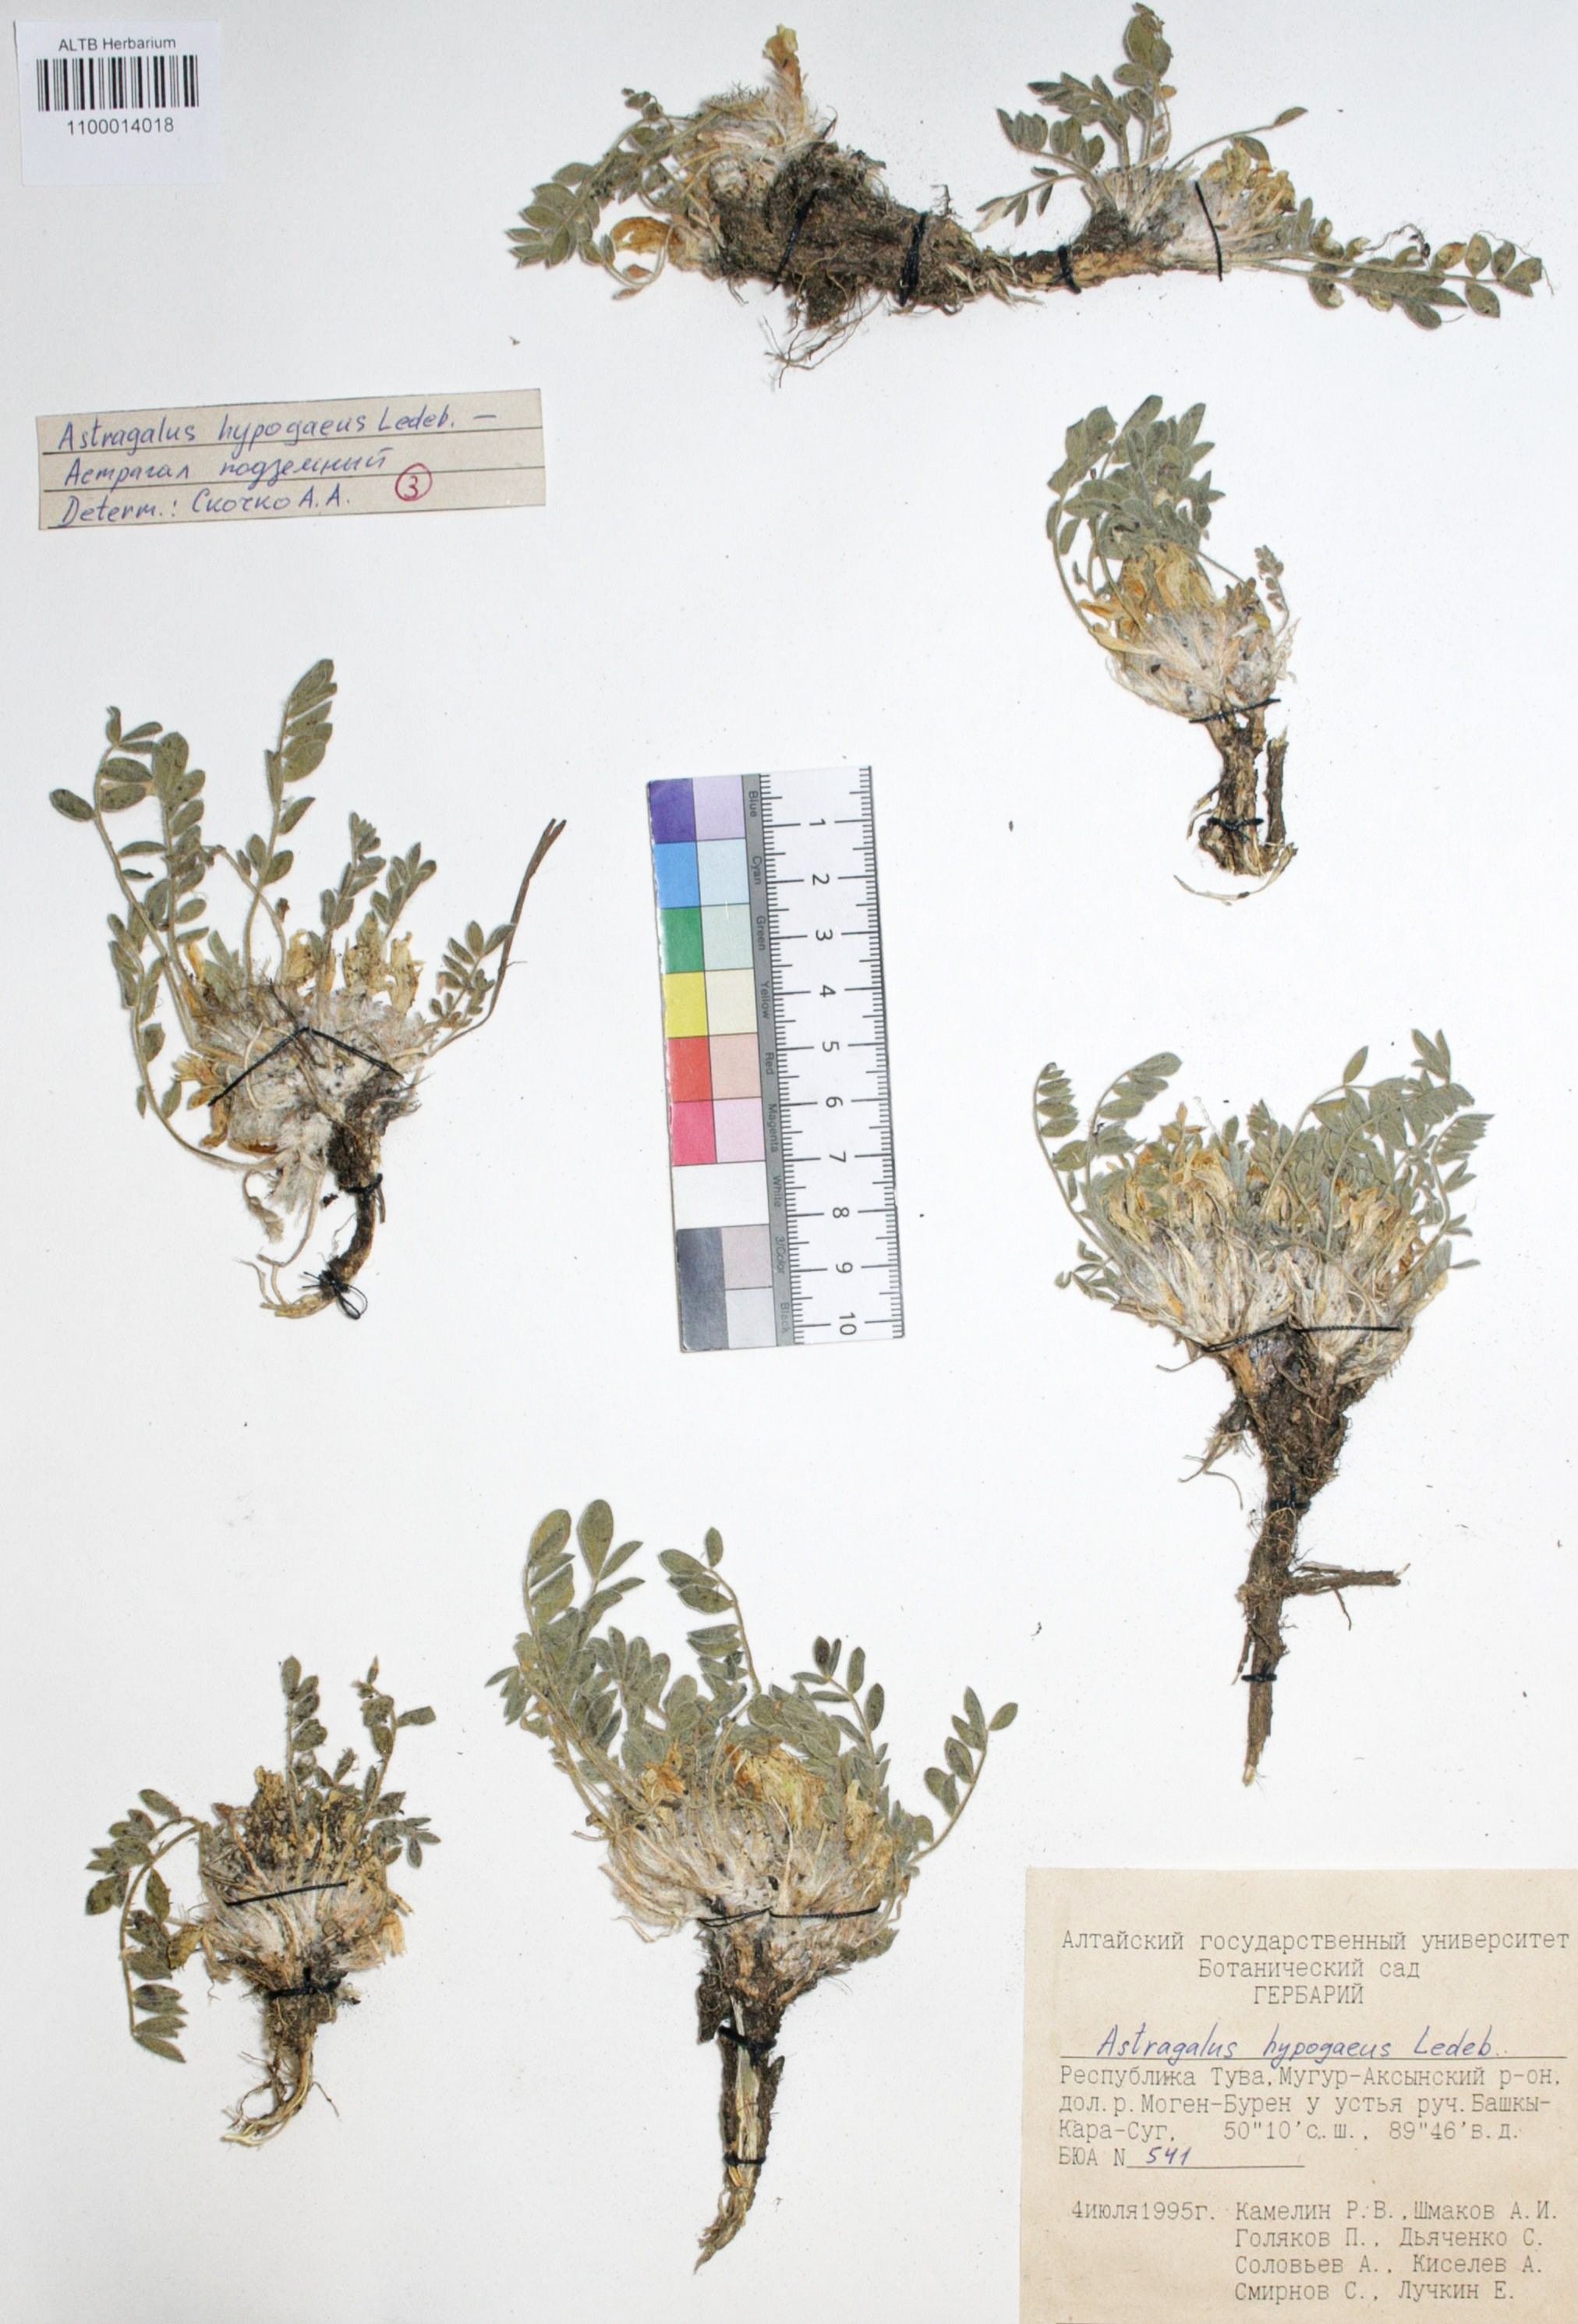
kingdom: Plantae
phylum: Tracheophyta
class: Magnoliopsida
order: Fabales
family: Fabaceae
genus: Astragalus
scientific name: Astragalus hypogaeus
